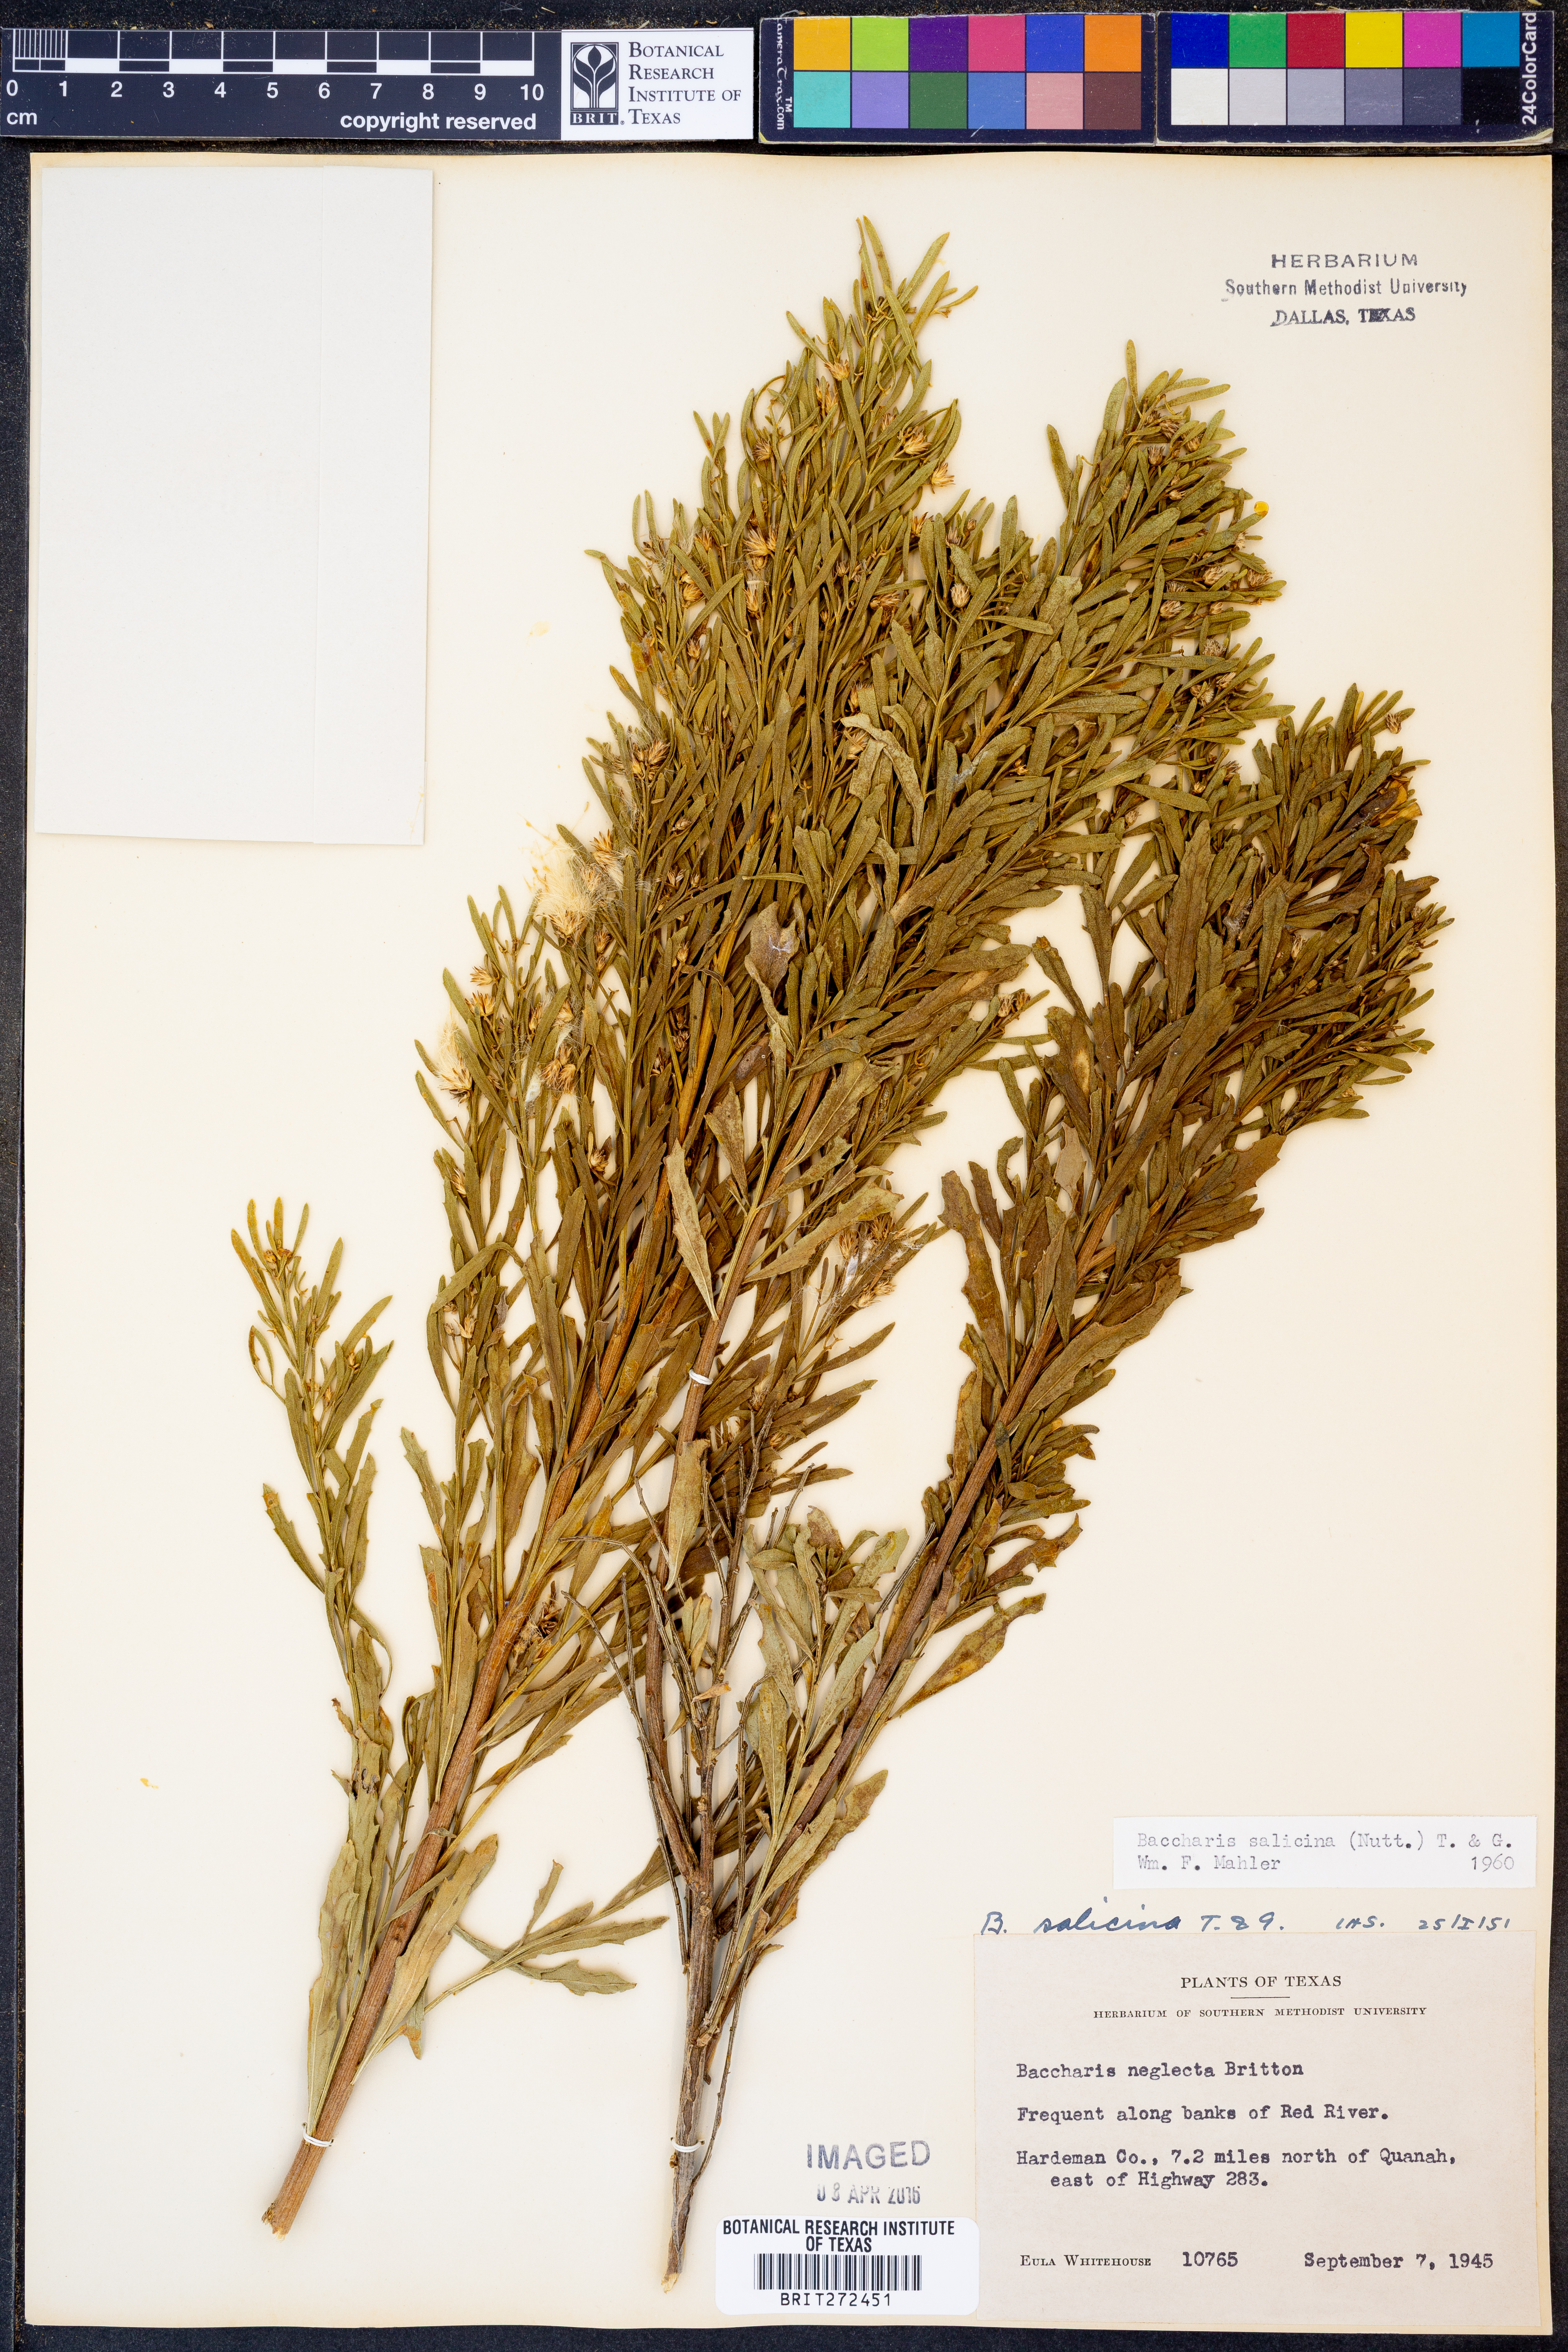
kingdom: Plantae
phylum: Tracheophyta
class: Magnoliopsida
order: Asterales
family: Asteraceae
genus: Baccharis
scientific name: Baccharis salicina
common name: Willow baccharis
